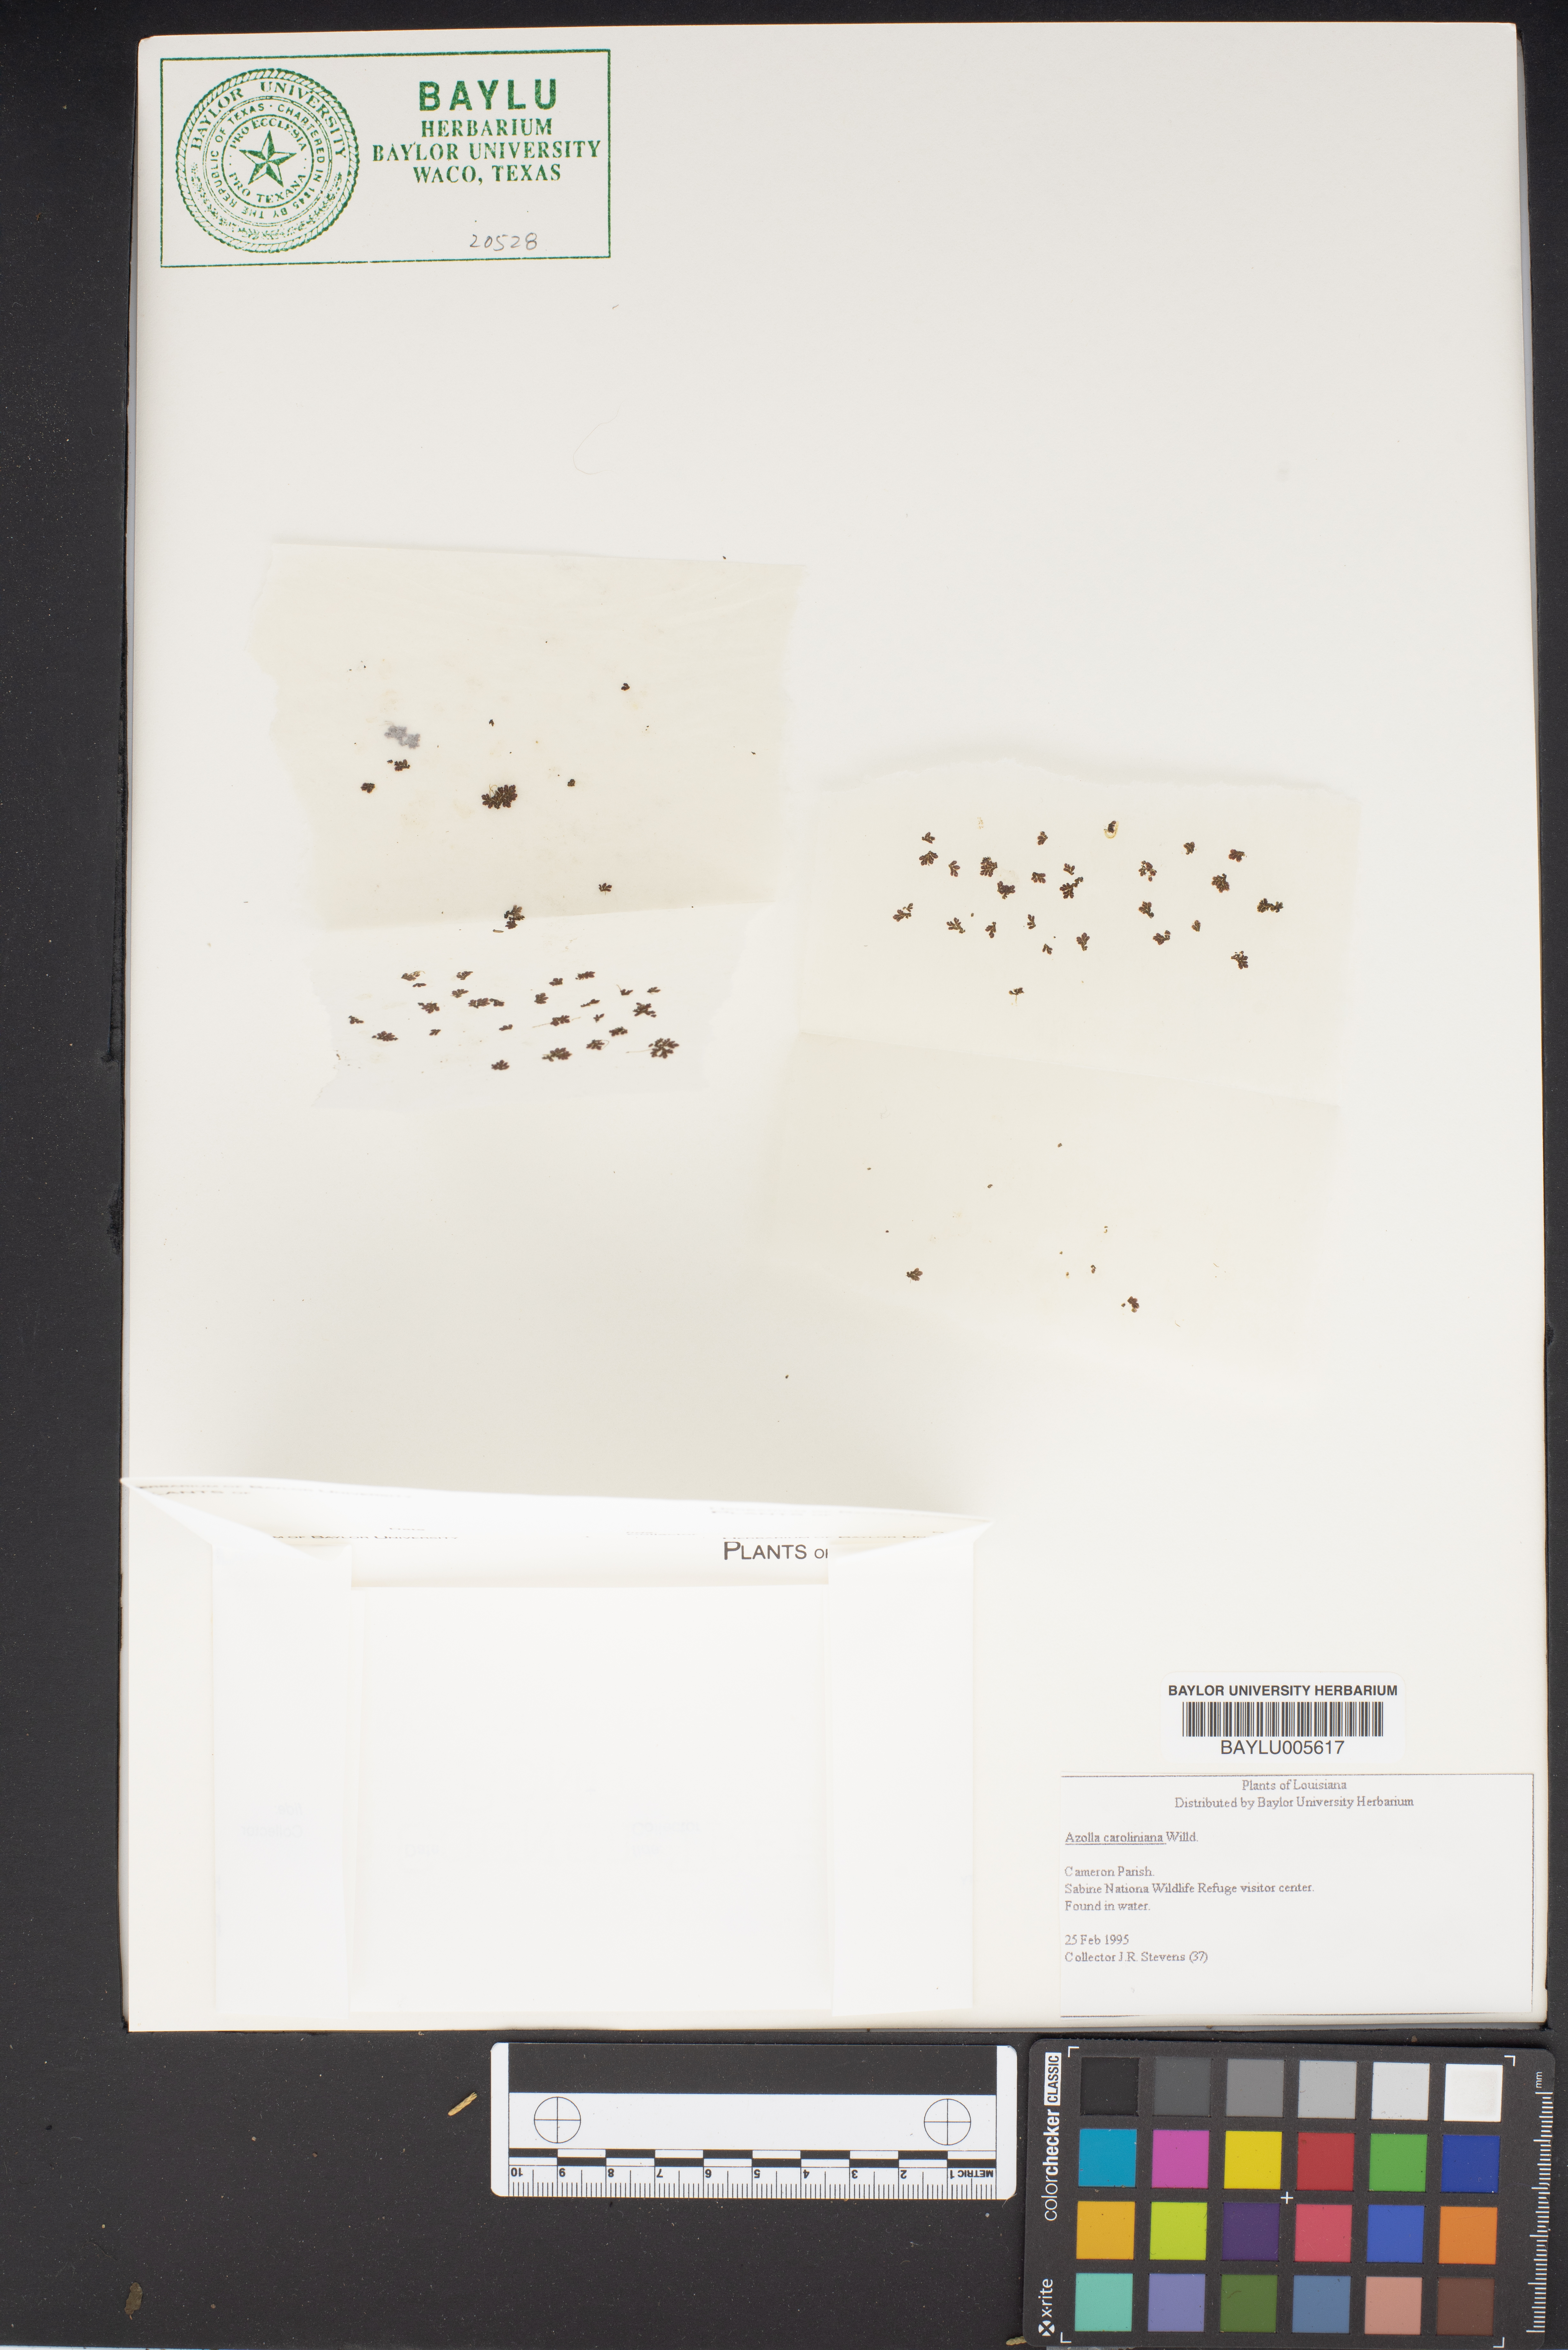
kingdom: Plantae
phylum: Tracheophyta
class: Polypodiopsida
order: Salviniales
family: Salviniaceae
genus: Azolla
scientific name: Azolla caroliniana
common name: Carolina mosquitofern
